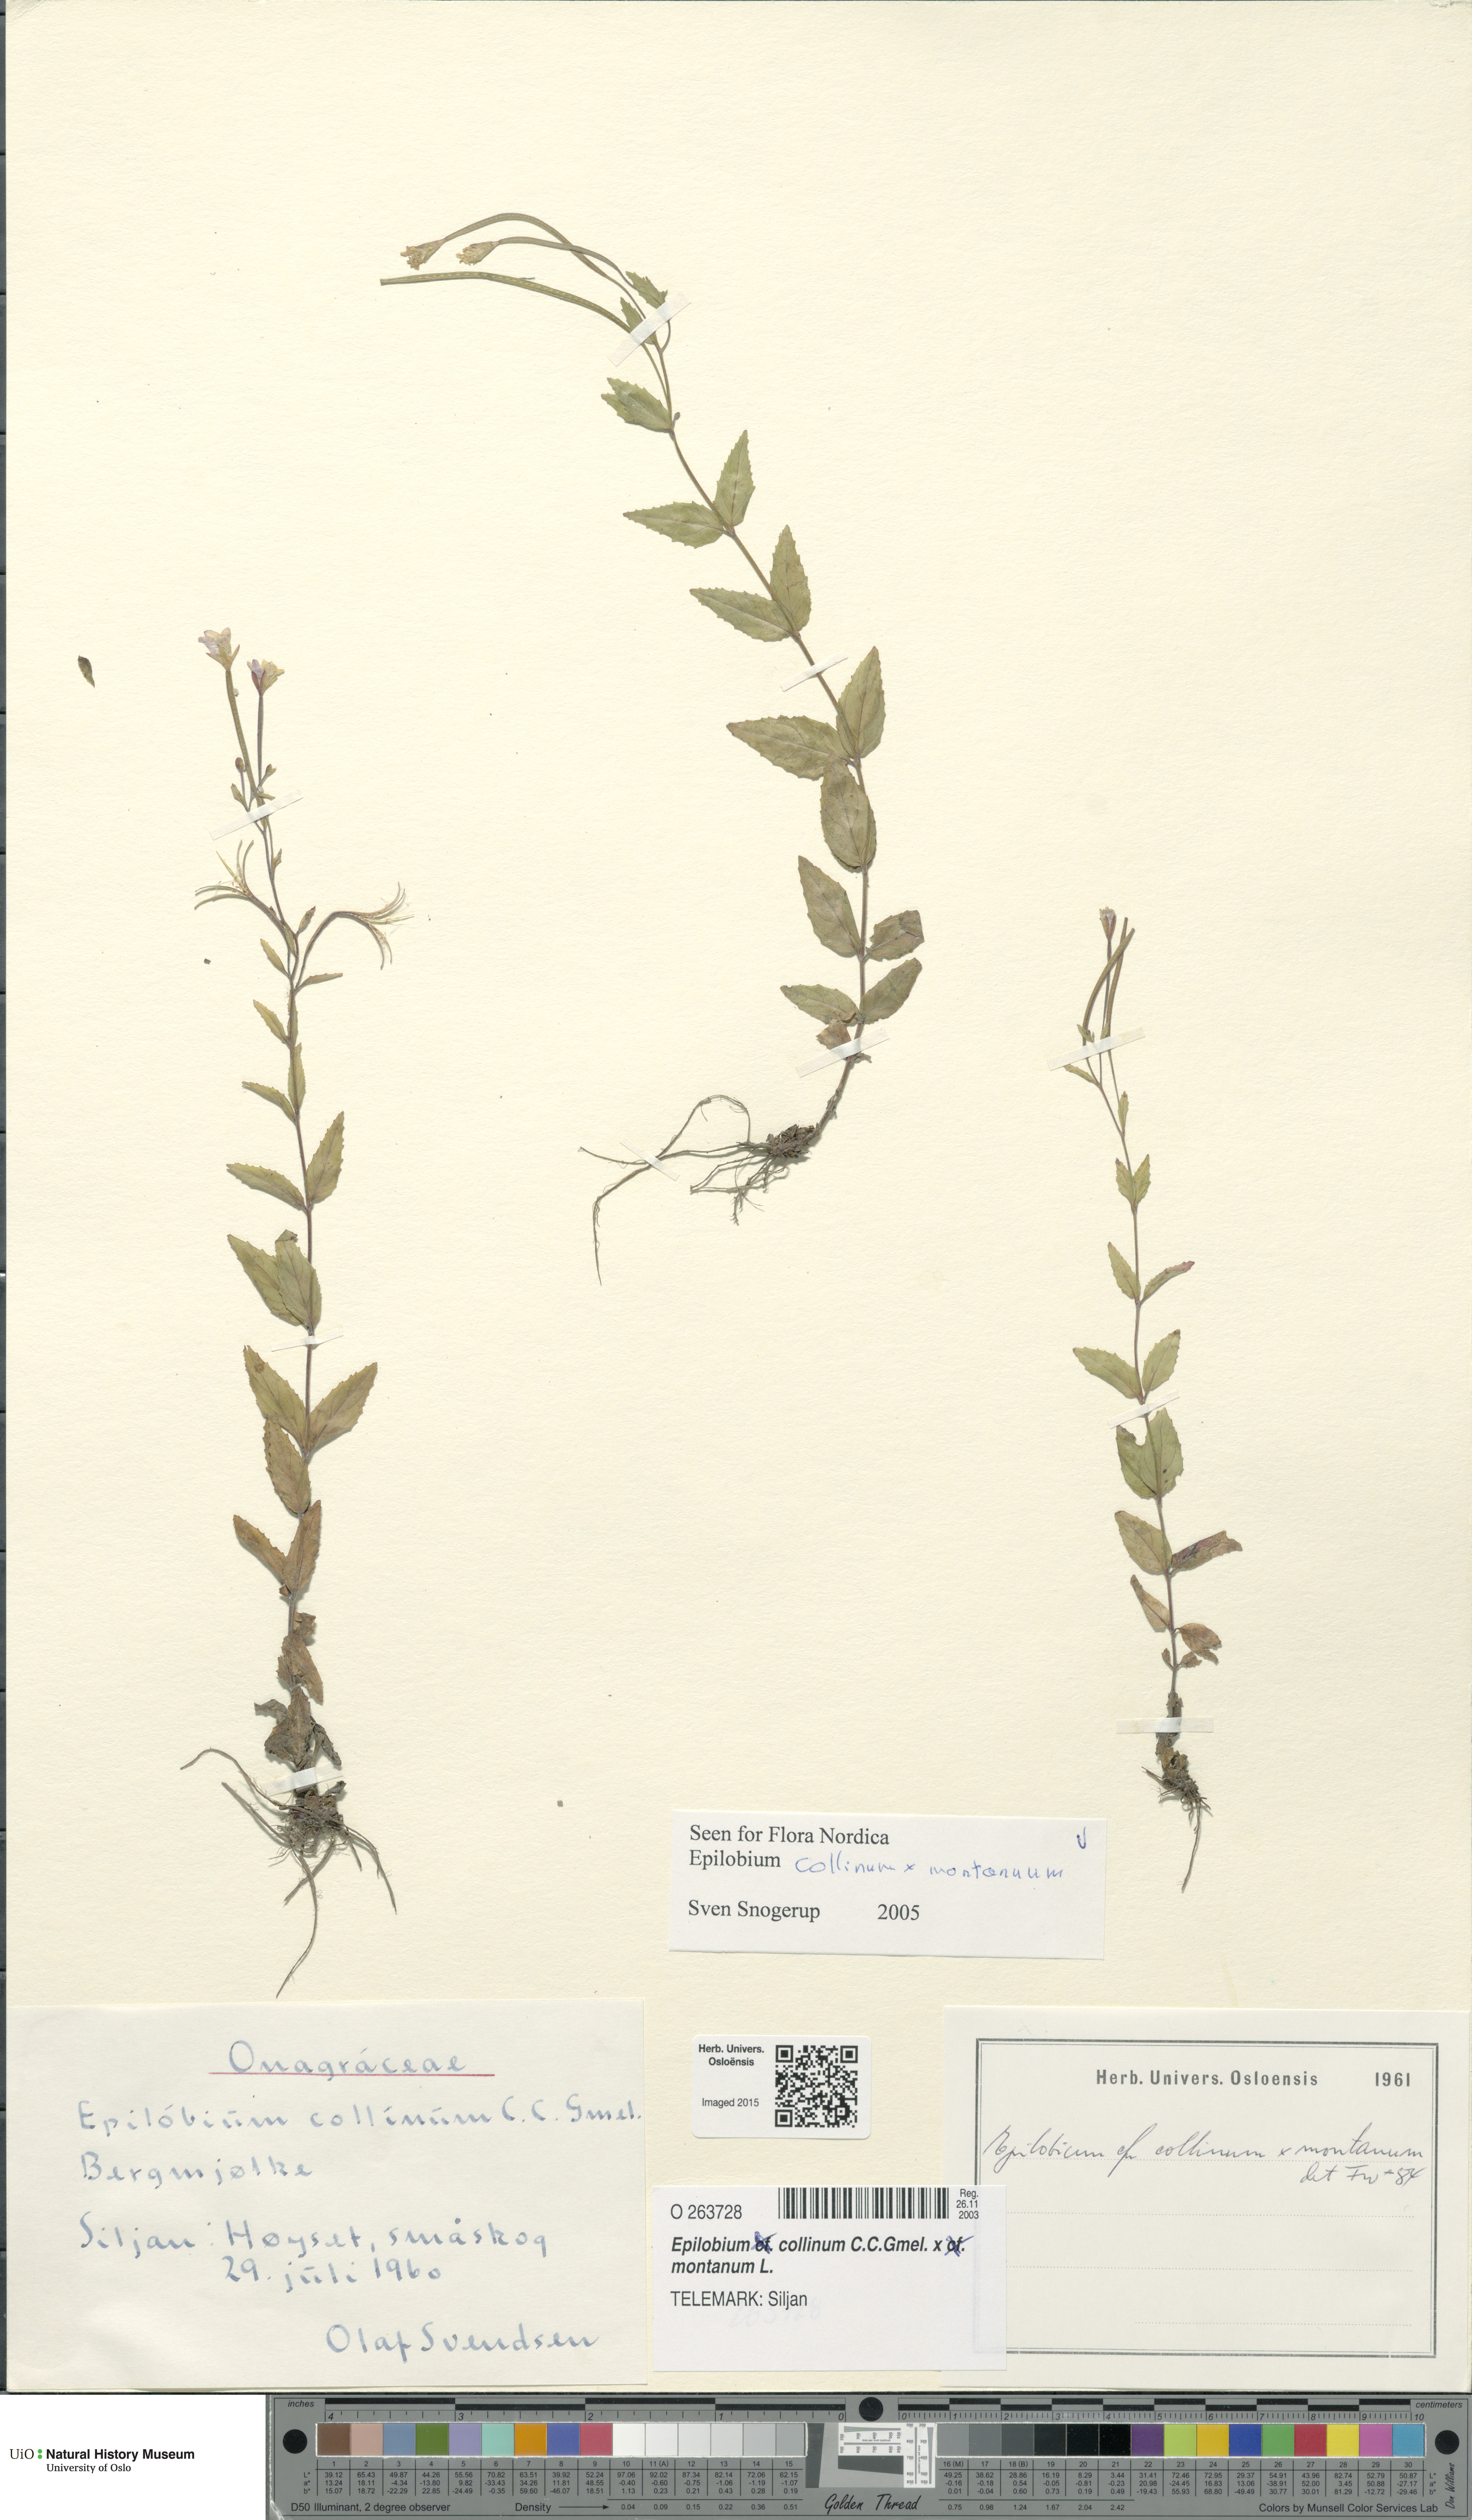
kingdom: Plantae
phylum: Tracheophyta
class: Magnoliopsida
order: Myrtales
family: Onagraceae
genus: Epilobium
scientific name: Epilobium
